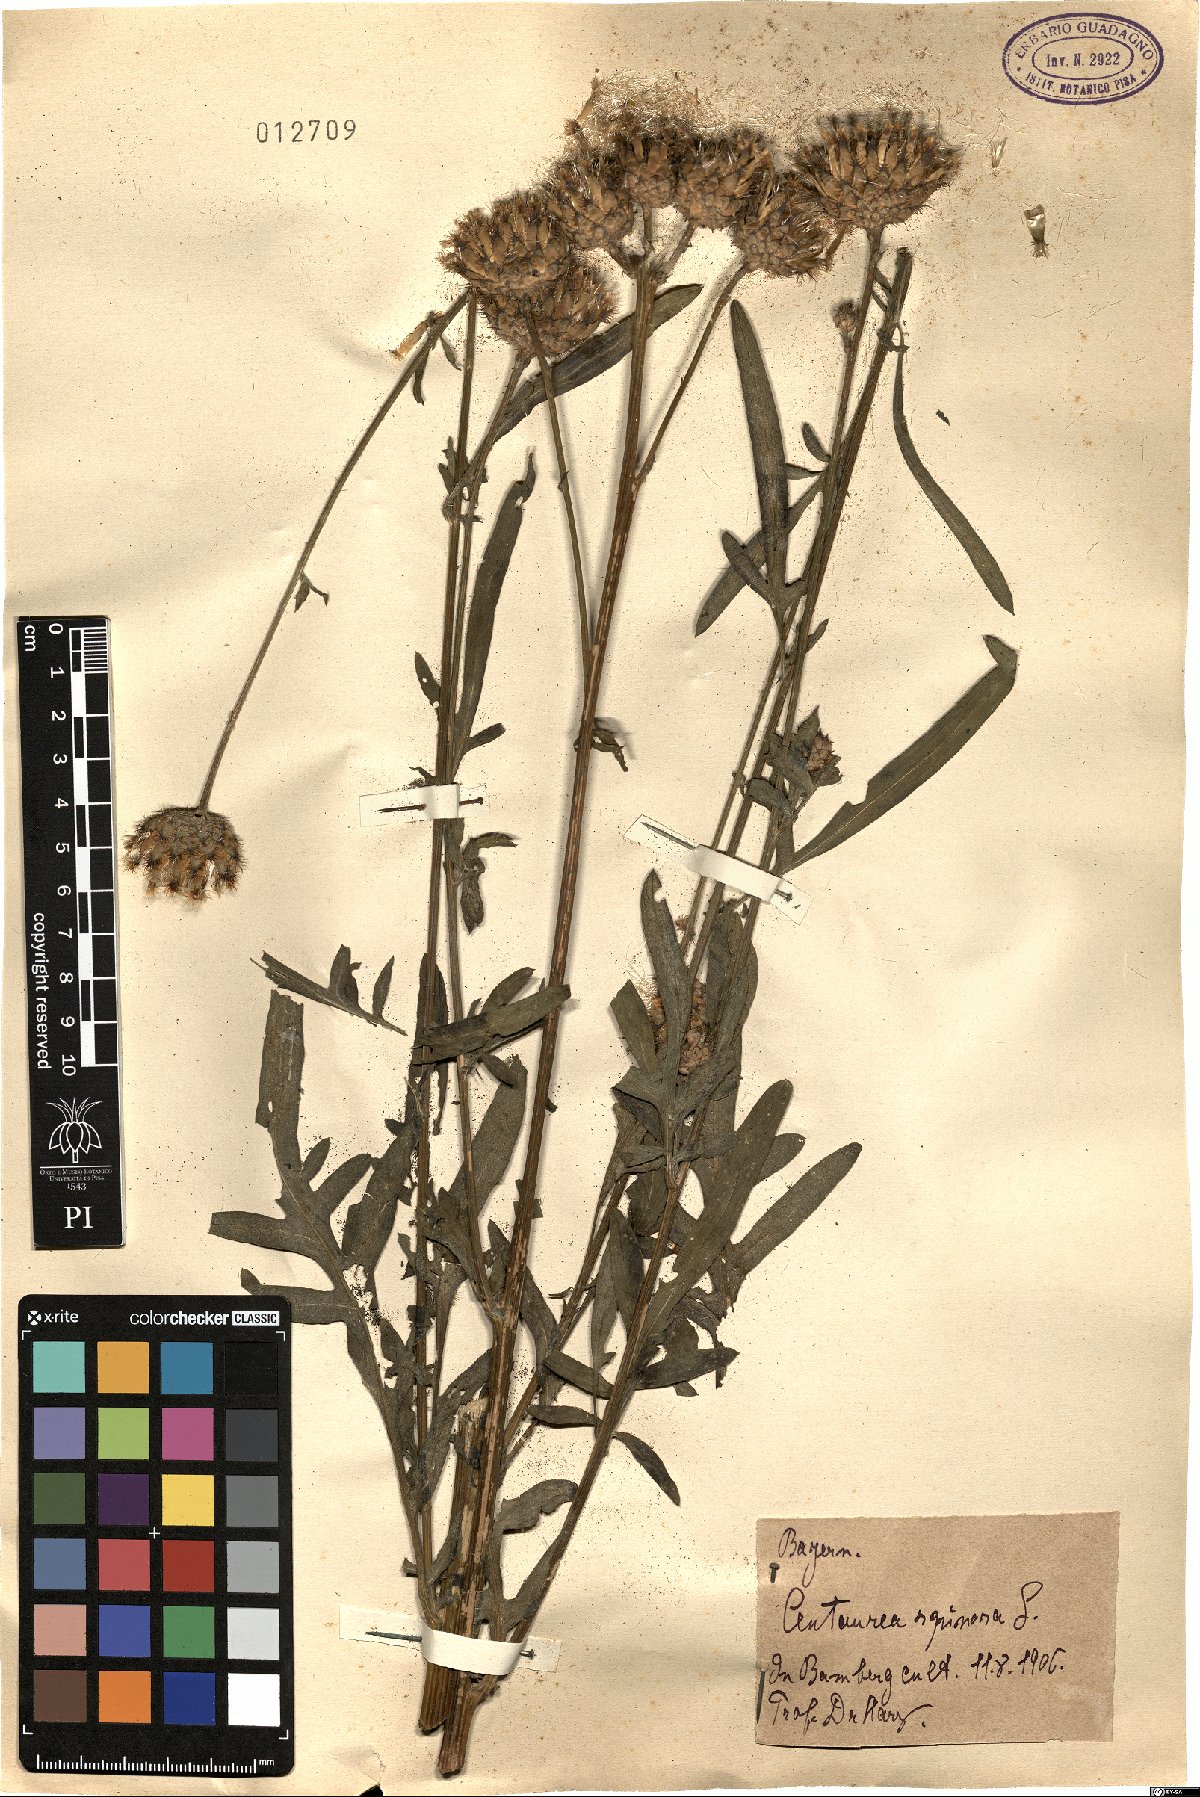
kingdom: Plantae
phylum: Tracheophyta
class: Magnoliopsida
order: Asterales
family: Asteraceae
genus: Centaurea
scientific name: Centaurea spinosa
